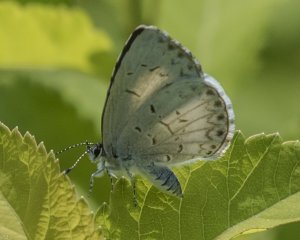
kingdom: Animalia
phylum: Arthropoda
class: Insecta
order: Lepidoptera
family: Lycaenidae
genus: Cyaniris
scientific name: Cyaniris neglecta
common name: Summer Azure
